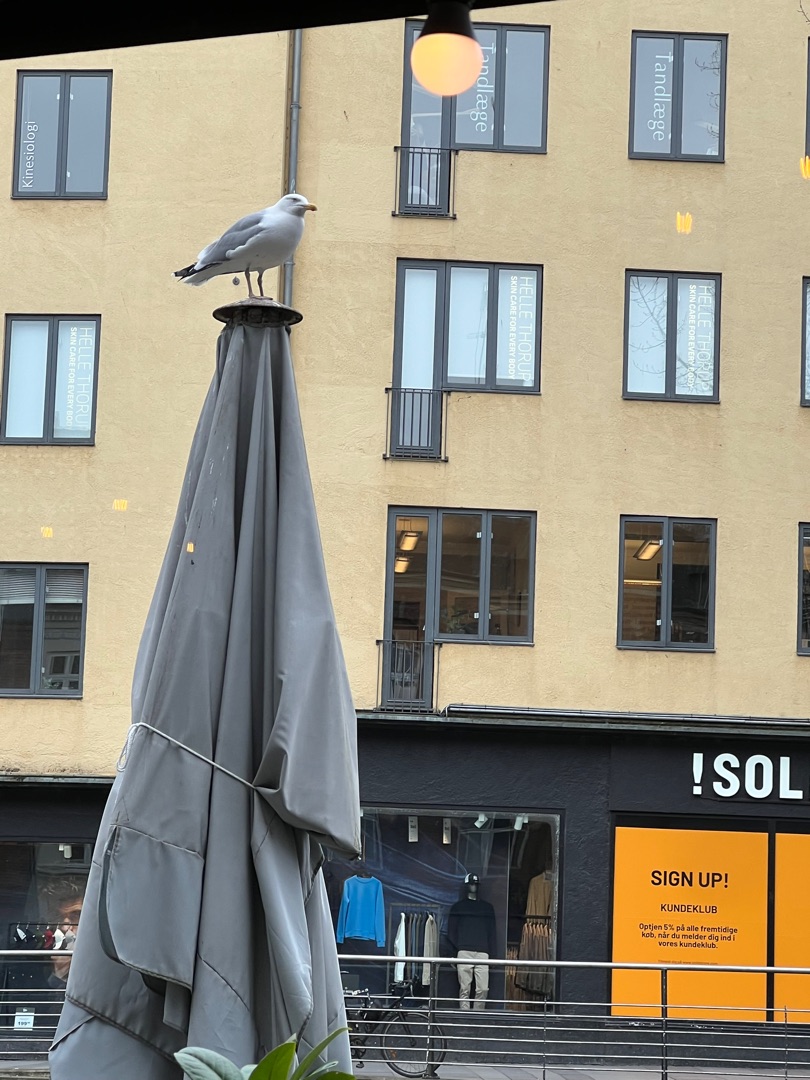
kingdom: Animalia
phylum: Chordata
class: Aves
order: Charadriiformes
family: Laridae
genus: Larus
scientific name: Larus argentatus
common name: Sølvmåge
